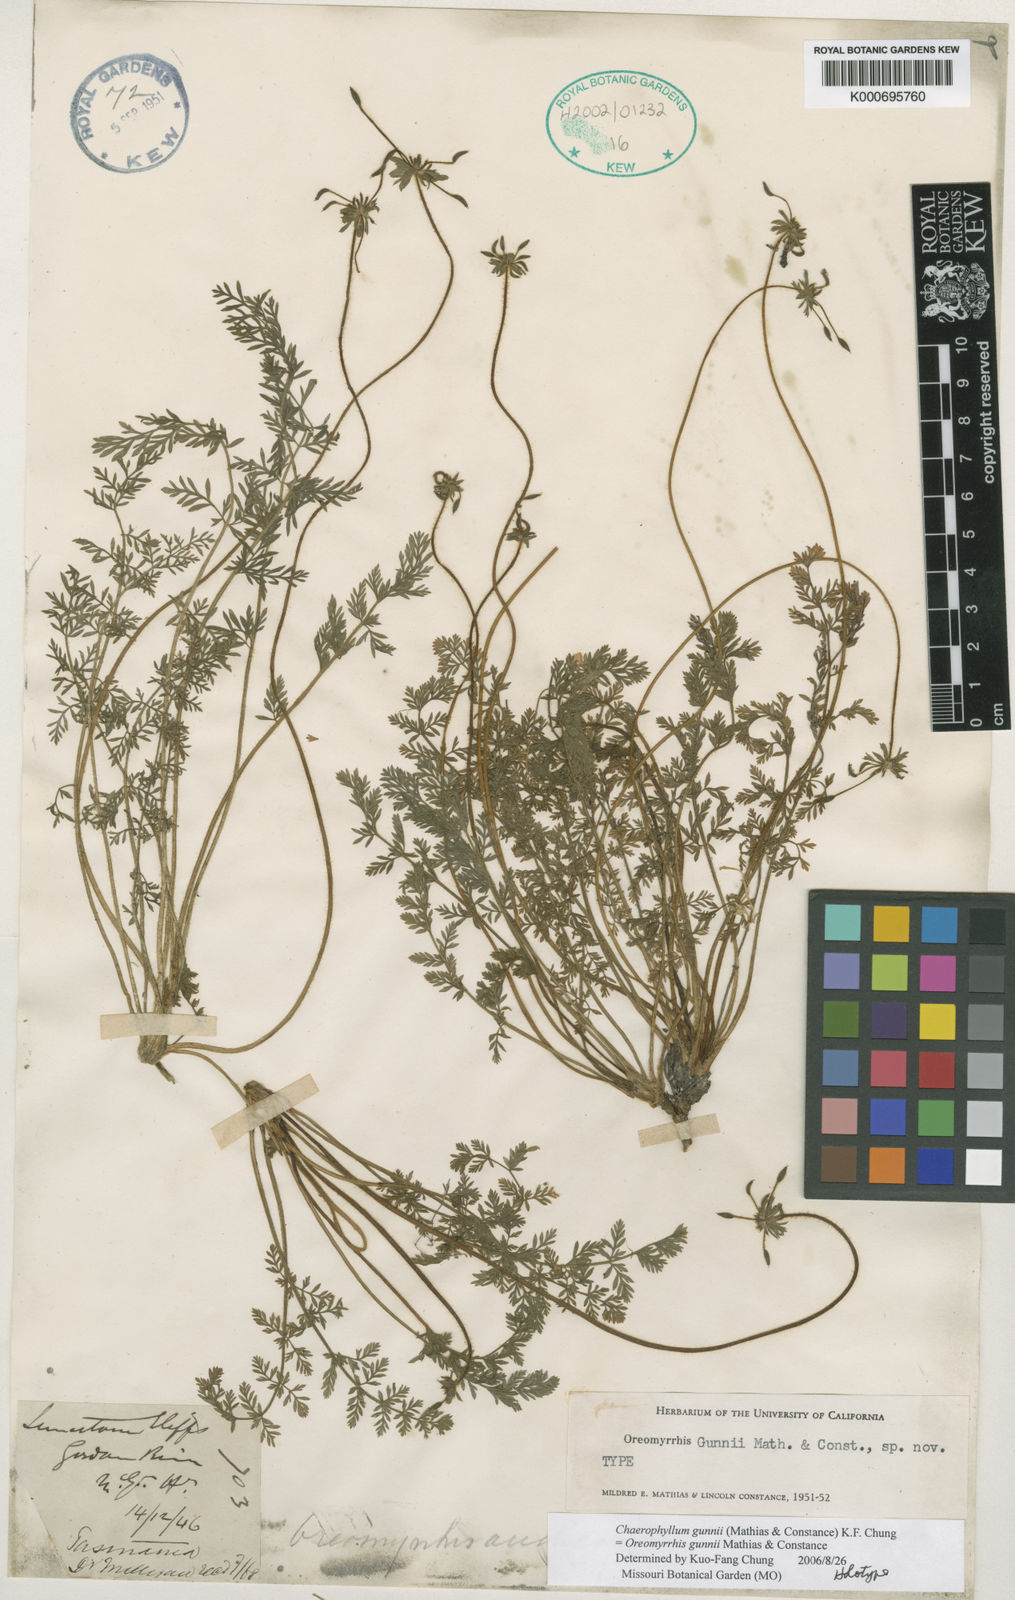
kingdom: Plantae
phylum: Tracheophyta
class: Magnoliopsida
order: Apiales
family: Apiaceae
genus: Chaerophyllum
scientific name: Chaerophyllum gunnii
